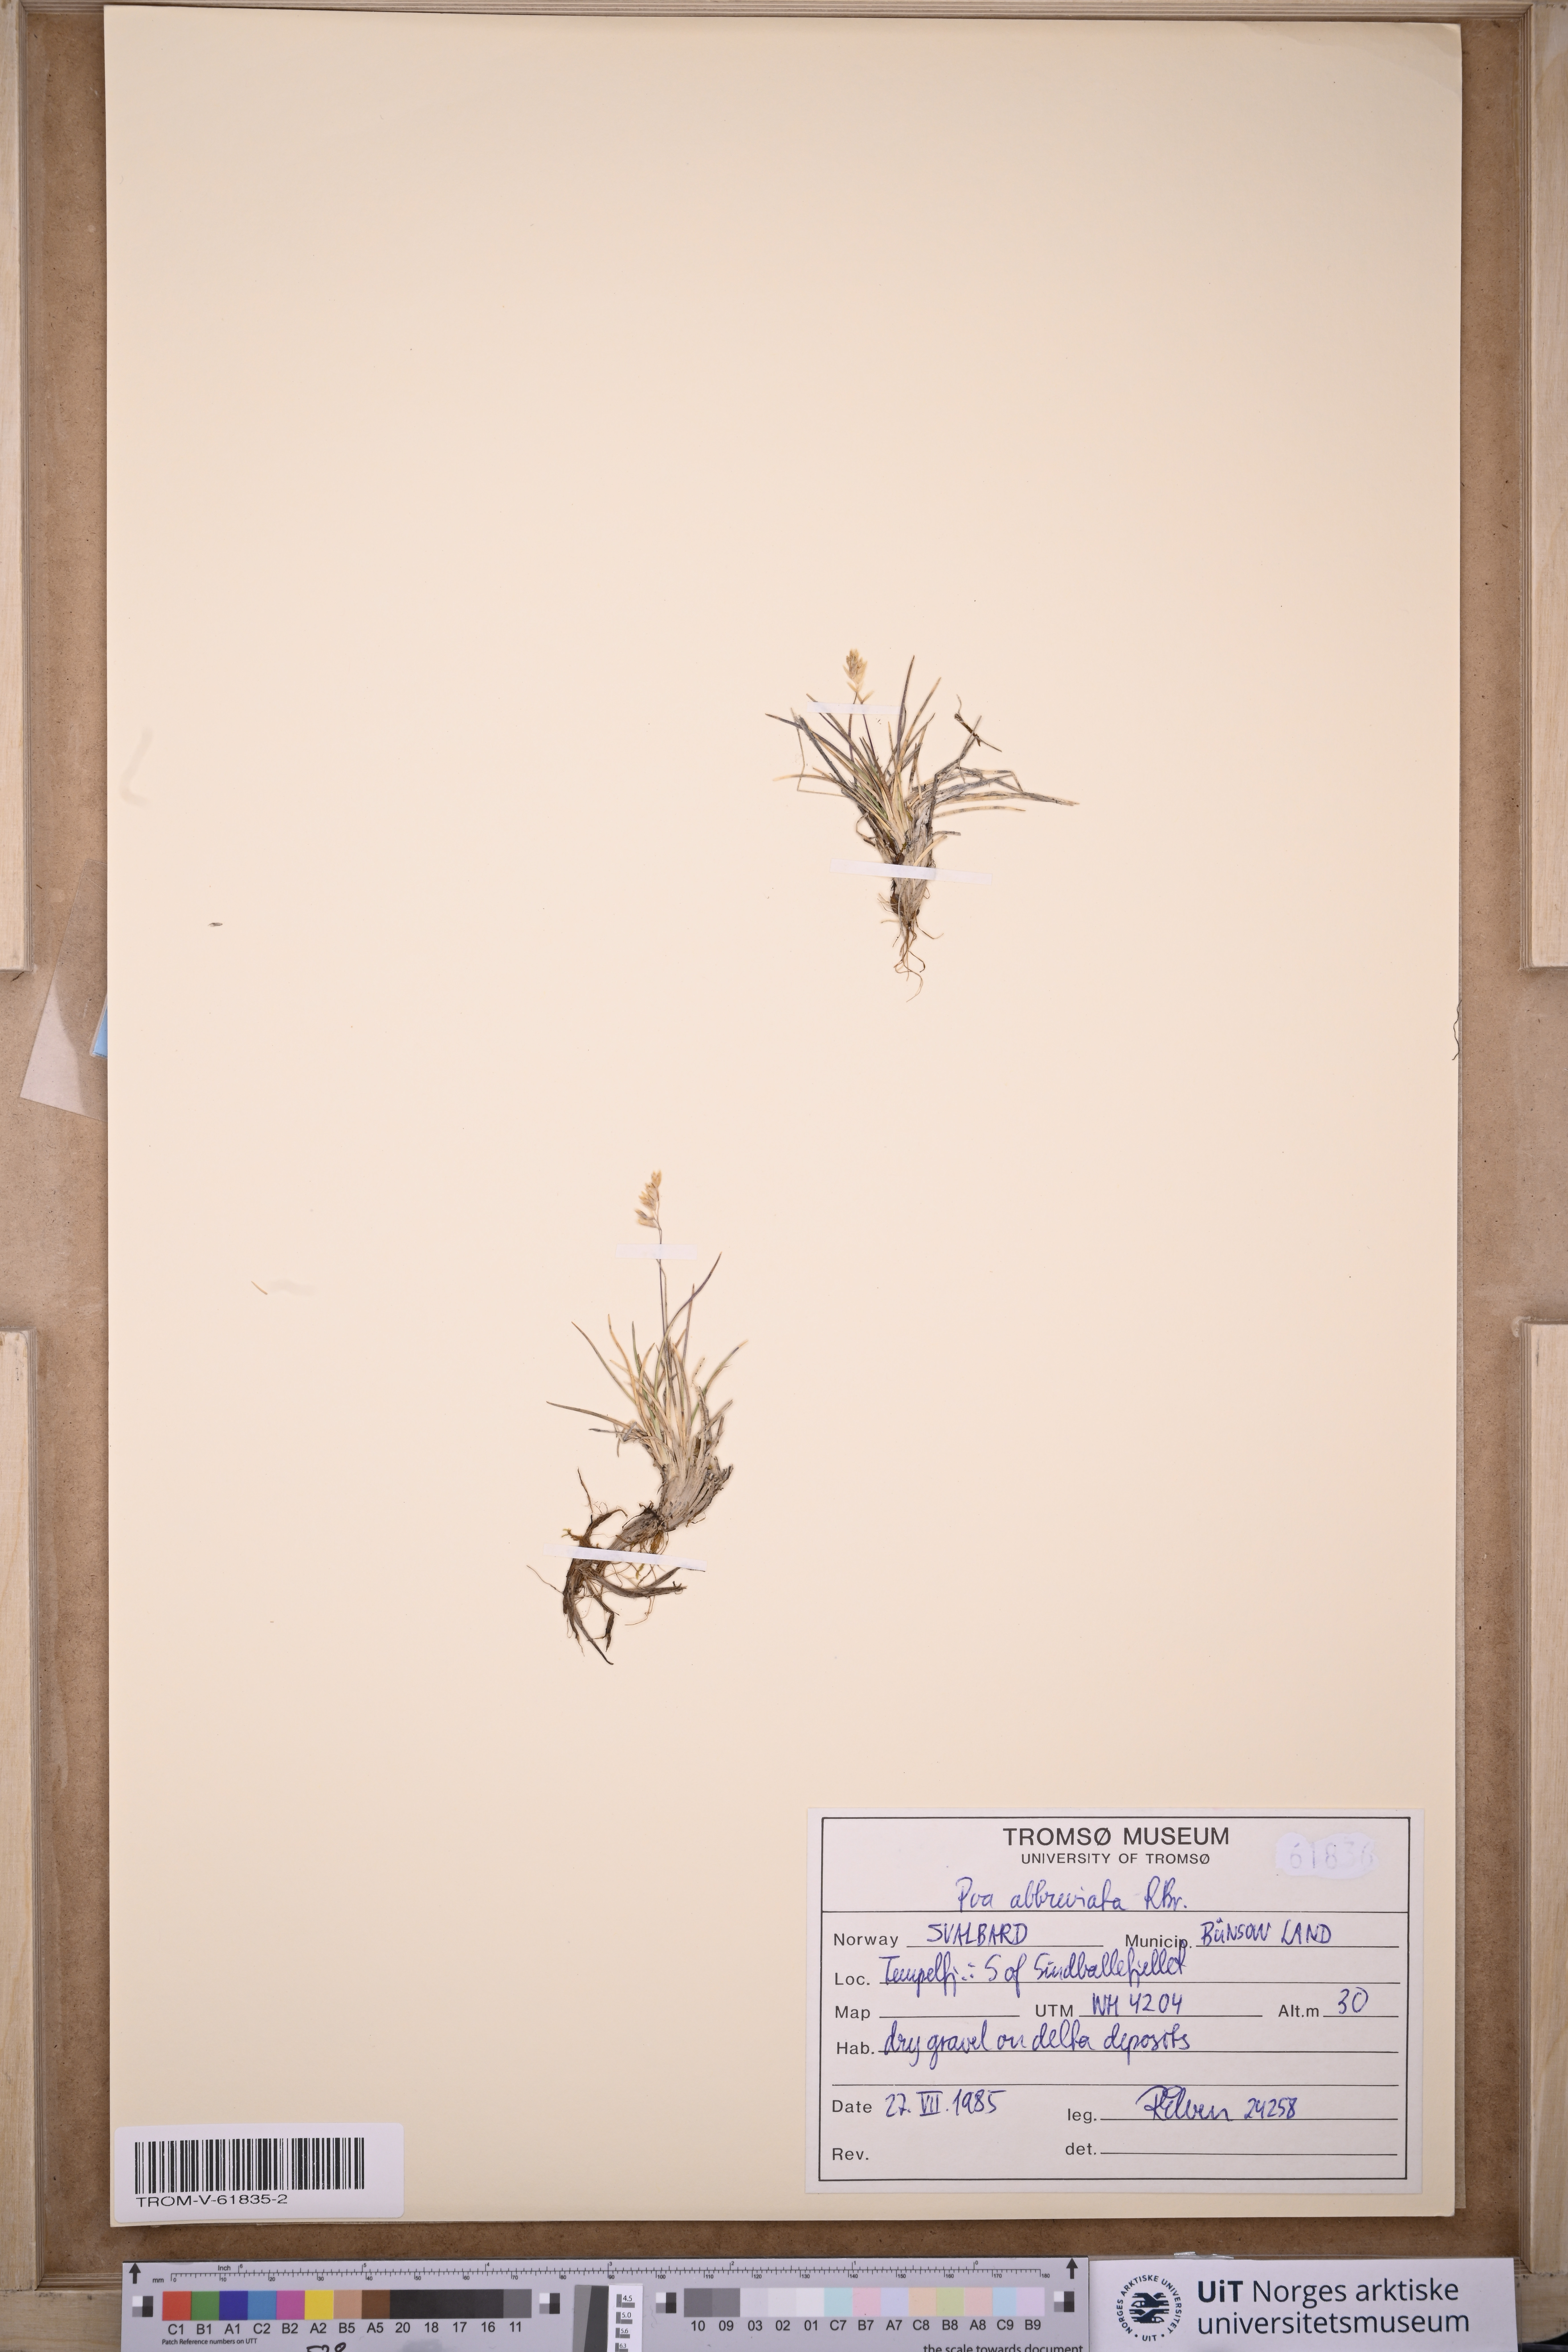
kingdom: Plantae
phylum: Tracheophyta
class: Liliopsida
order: Poales
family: Poaceae
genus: Poa
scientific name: Poa abbreviata
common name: Abbreviated bluegrass
